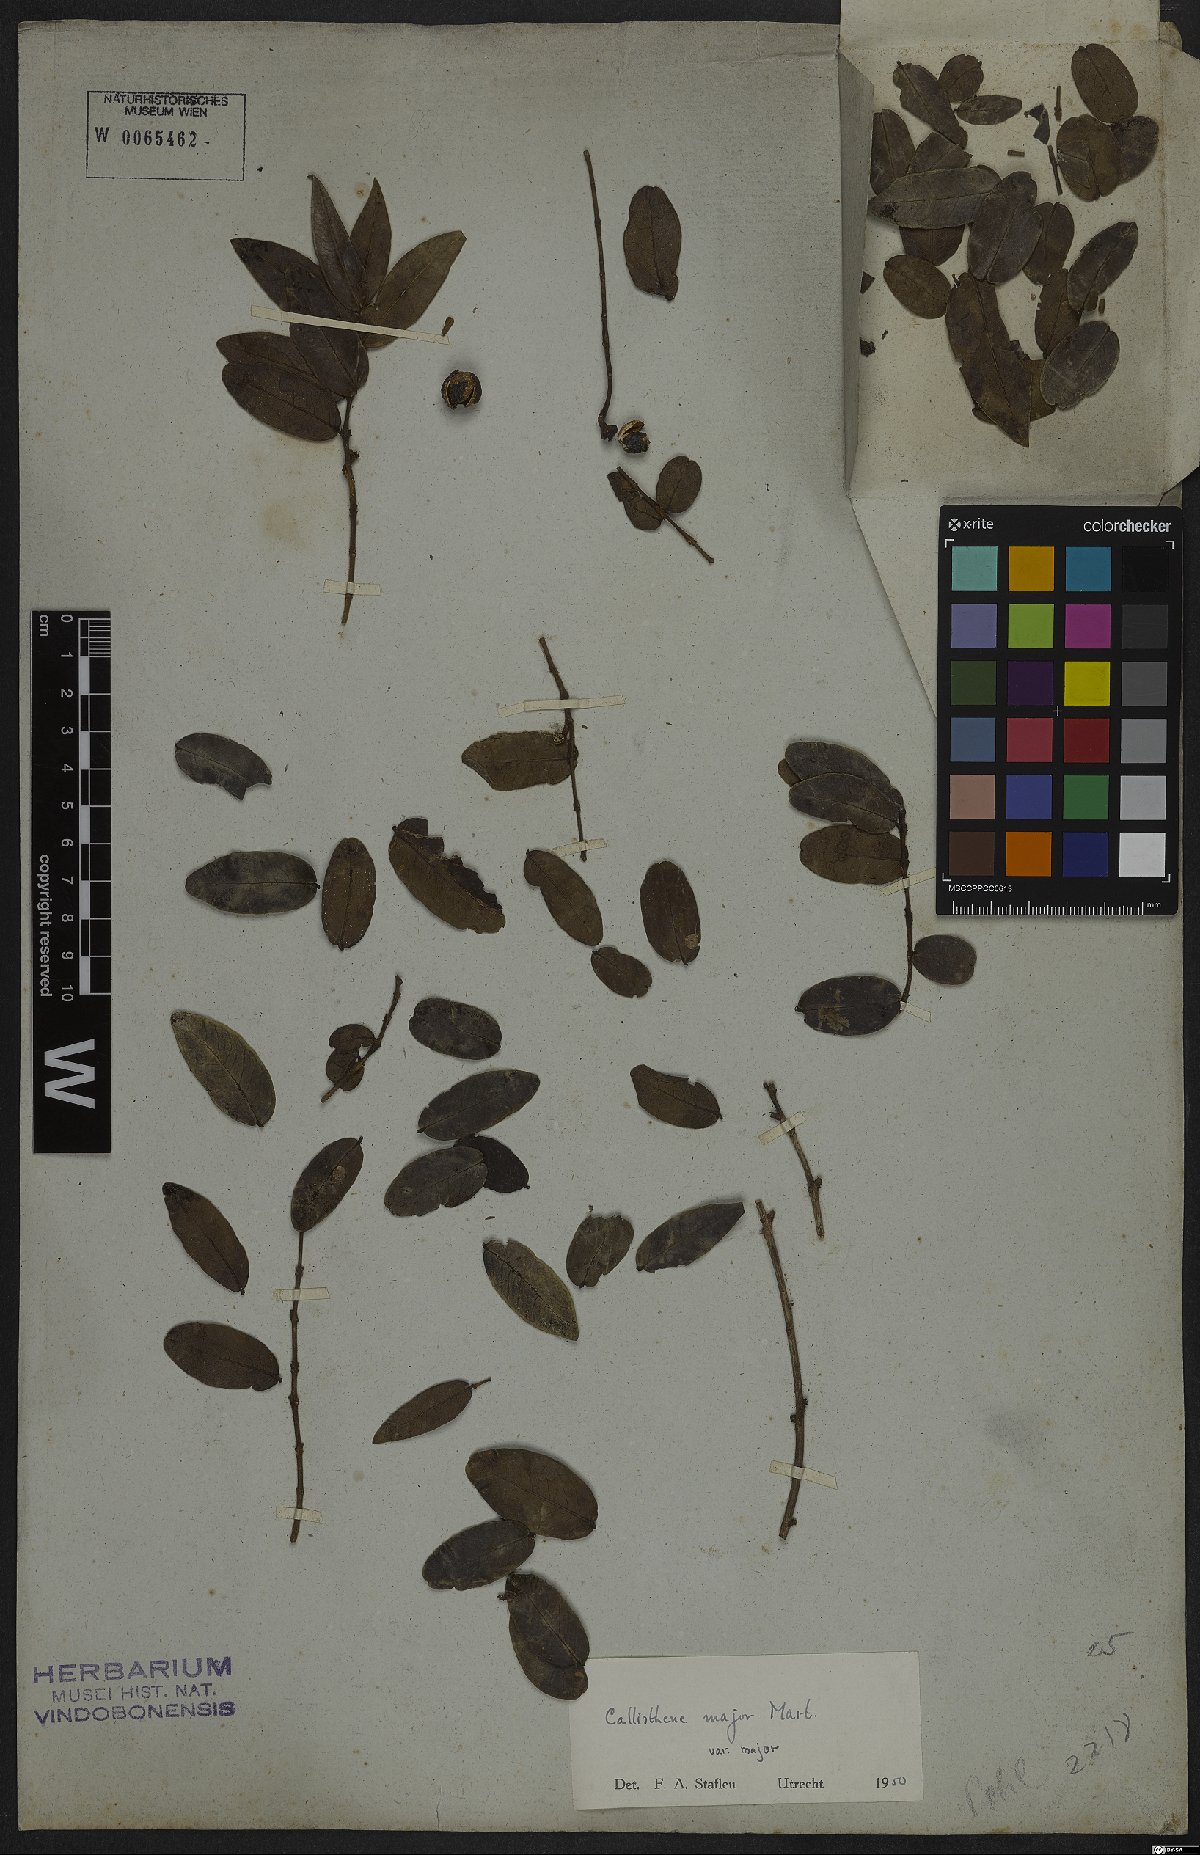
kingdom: Plantae
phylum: Tracheophyta
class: Magnoliopsida
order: Myrtales
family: Vochysiaceae
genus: Callisthene
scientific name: Callisthene major
